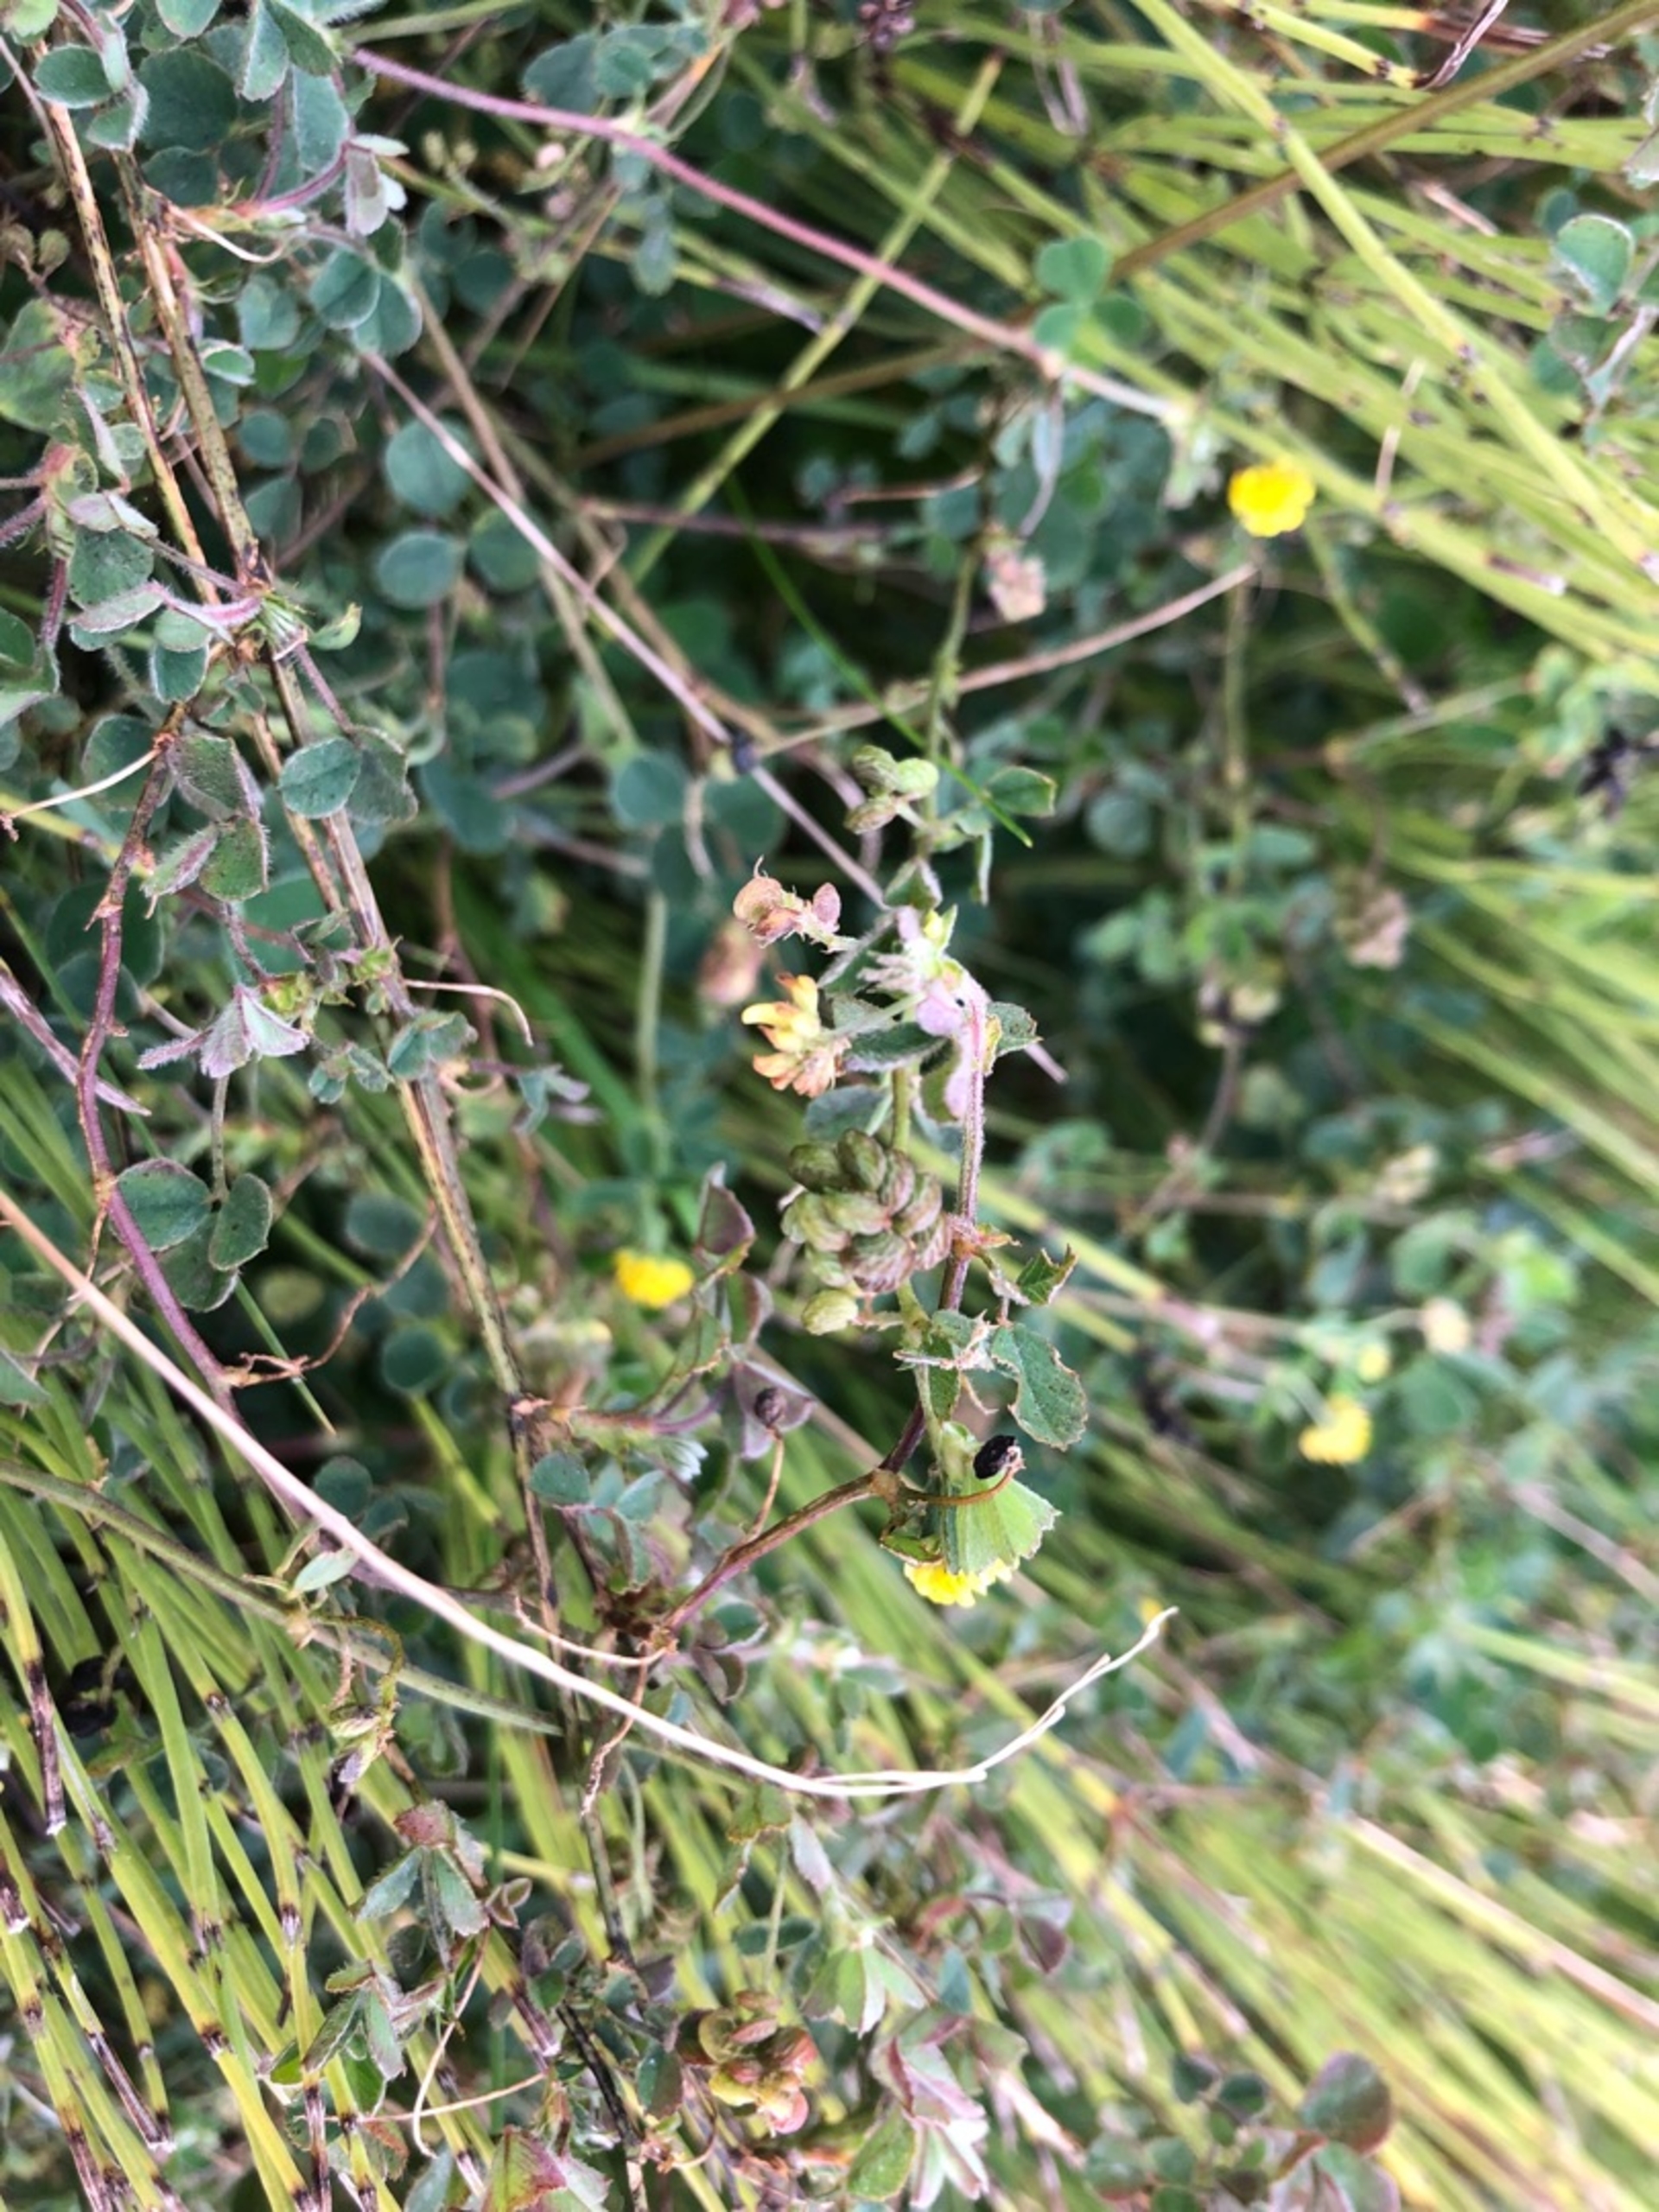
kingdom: Plantae
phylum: Tracheophyta
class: Magnoliopsida
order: Fabales
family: Fabaceae
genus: Medicago
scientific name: Medicago lupulina
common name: Humle-sneglebælg
